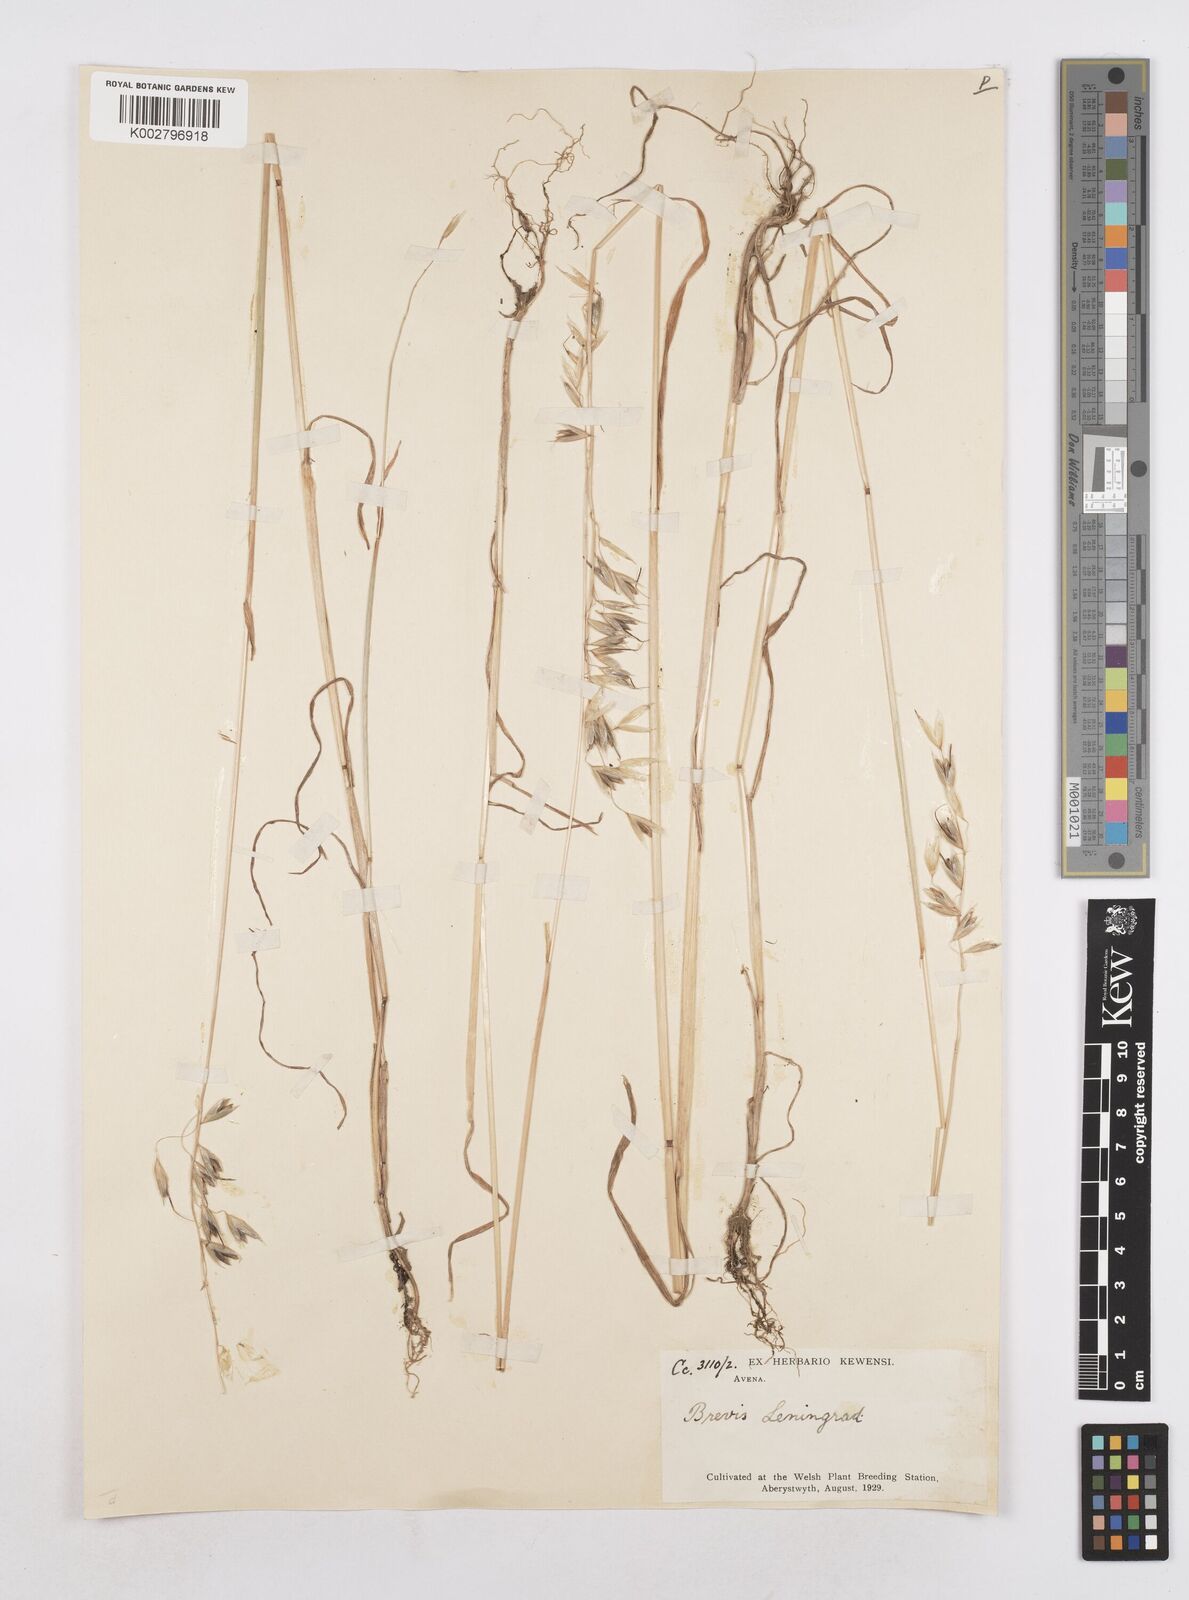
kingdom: Plantae
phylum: Tracheophyta
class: Liliopsida
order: Poales
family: Poaceae
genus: Avena
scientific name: Avena brevis
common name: Short oat
